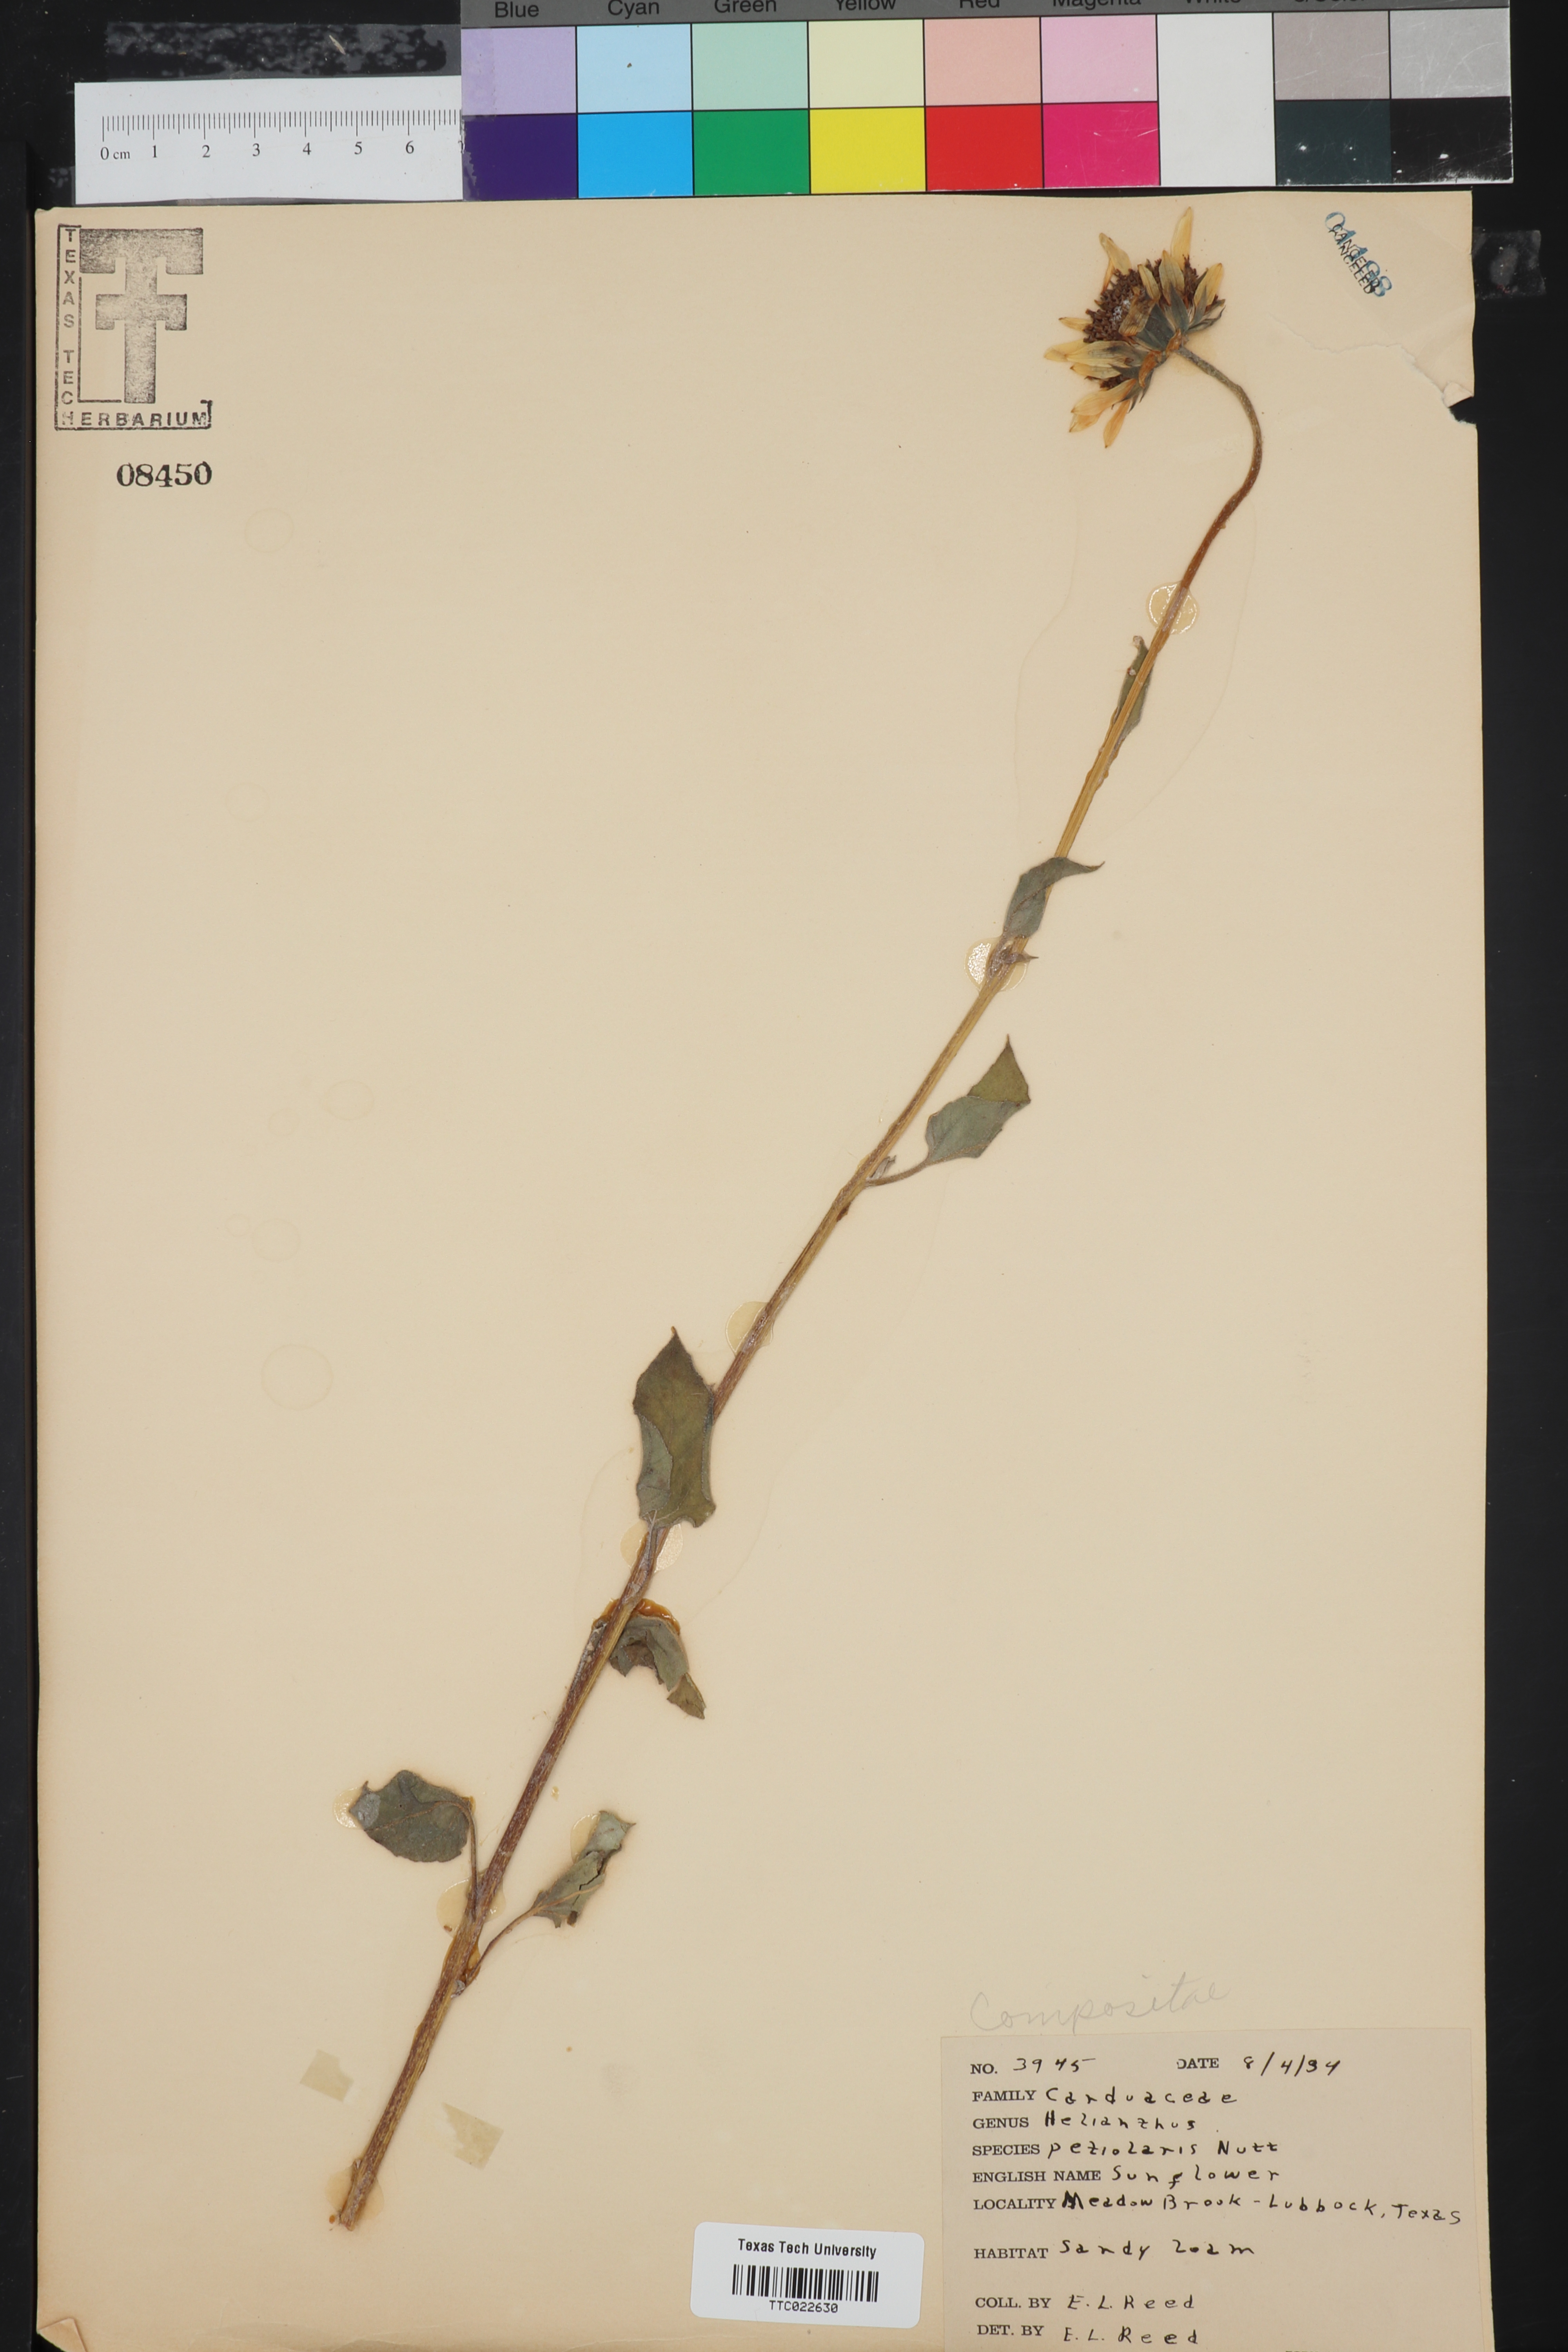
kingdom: Plantae
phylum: Tracheophyta
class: Magnoliopsida
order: Asterales
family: Asteraceae
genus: Helianthus
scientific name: Helianthus petiolaris
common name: Lesser sunflower
